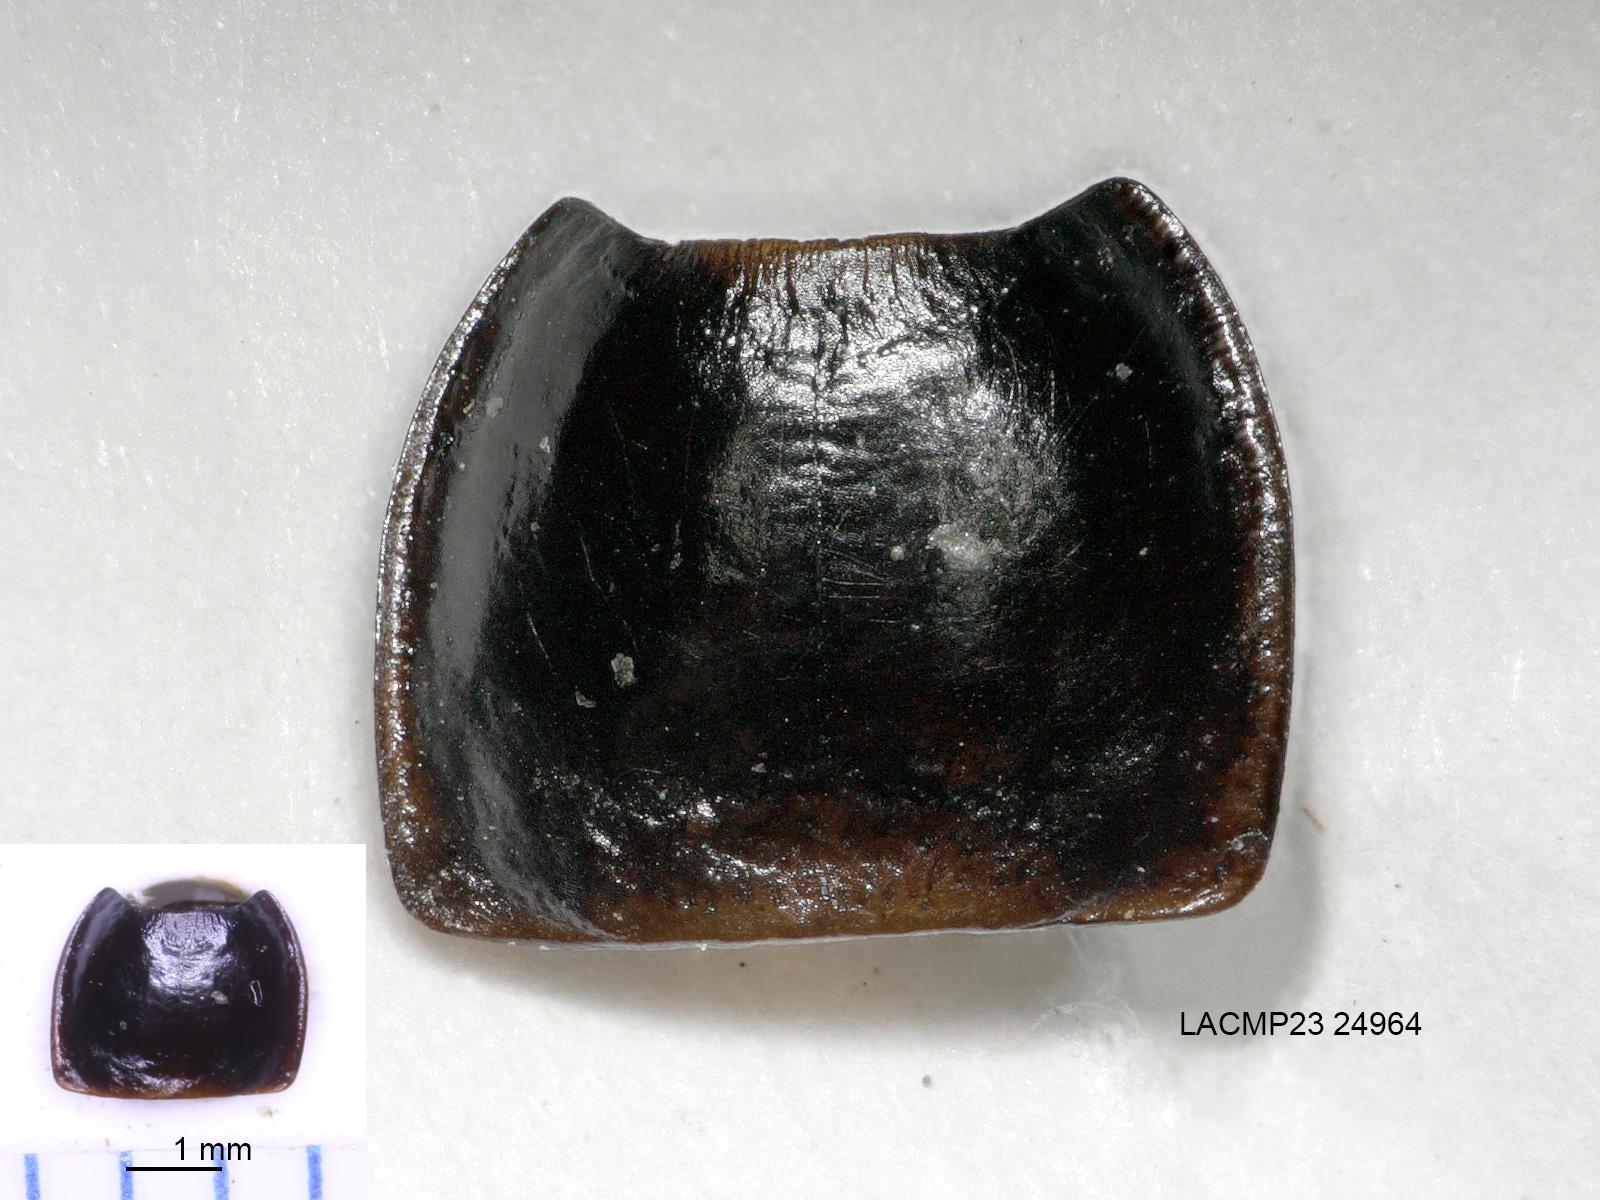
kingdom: Animalia
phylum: Arthropoda
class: Insecta
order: Coleoptera
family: Carabidae
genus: Calathus
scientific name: Calathus ruficollis
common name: Red-collared harp ground beetle
